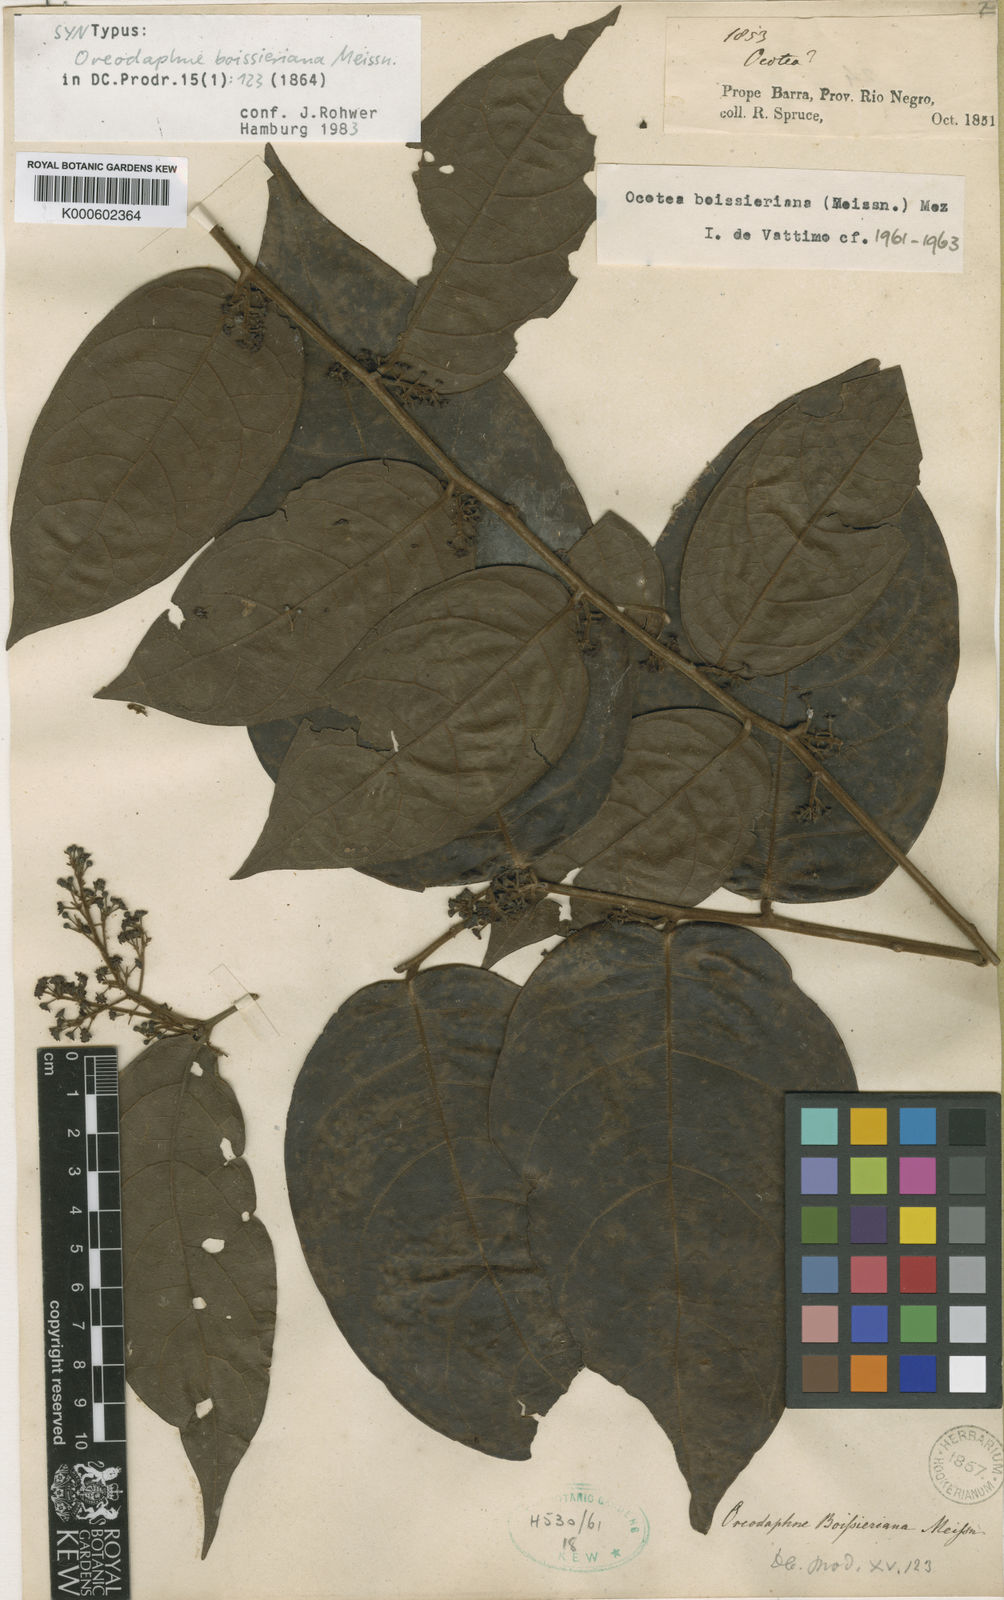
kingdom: Plantae
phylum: Tracheophyta
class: Magnoliopsida
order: Laurales
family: Lauraceae
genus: Ocotea
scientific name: Ocotea boissieriana
